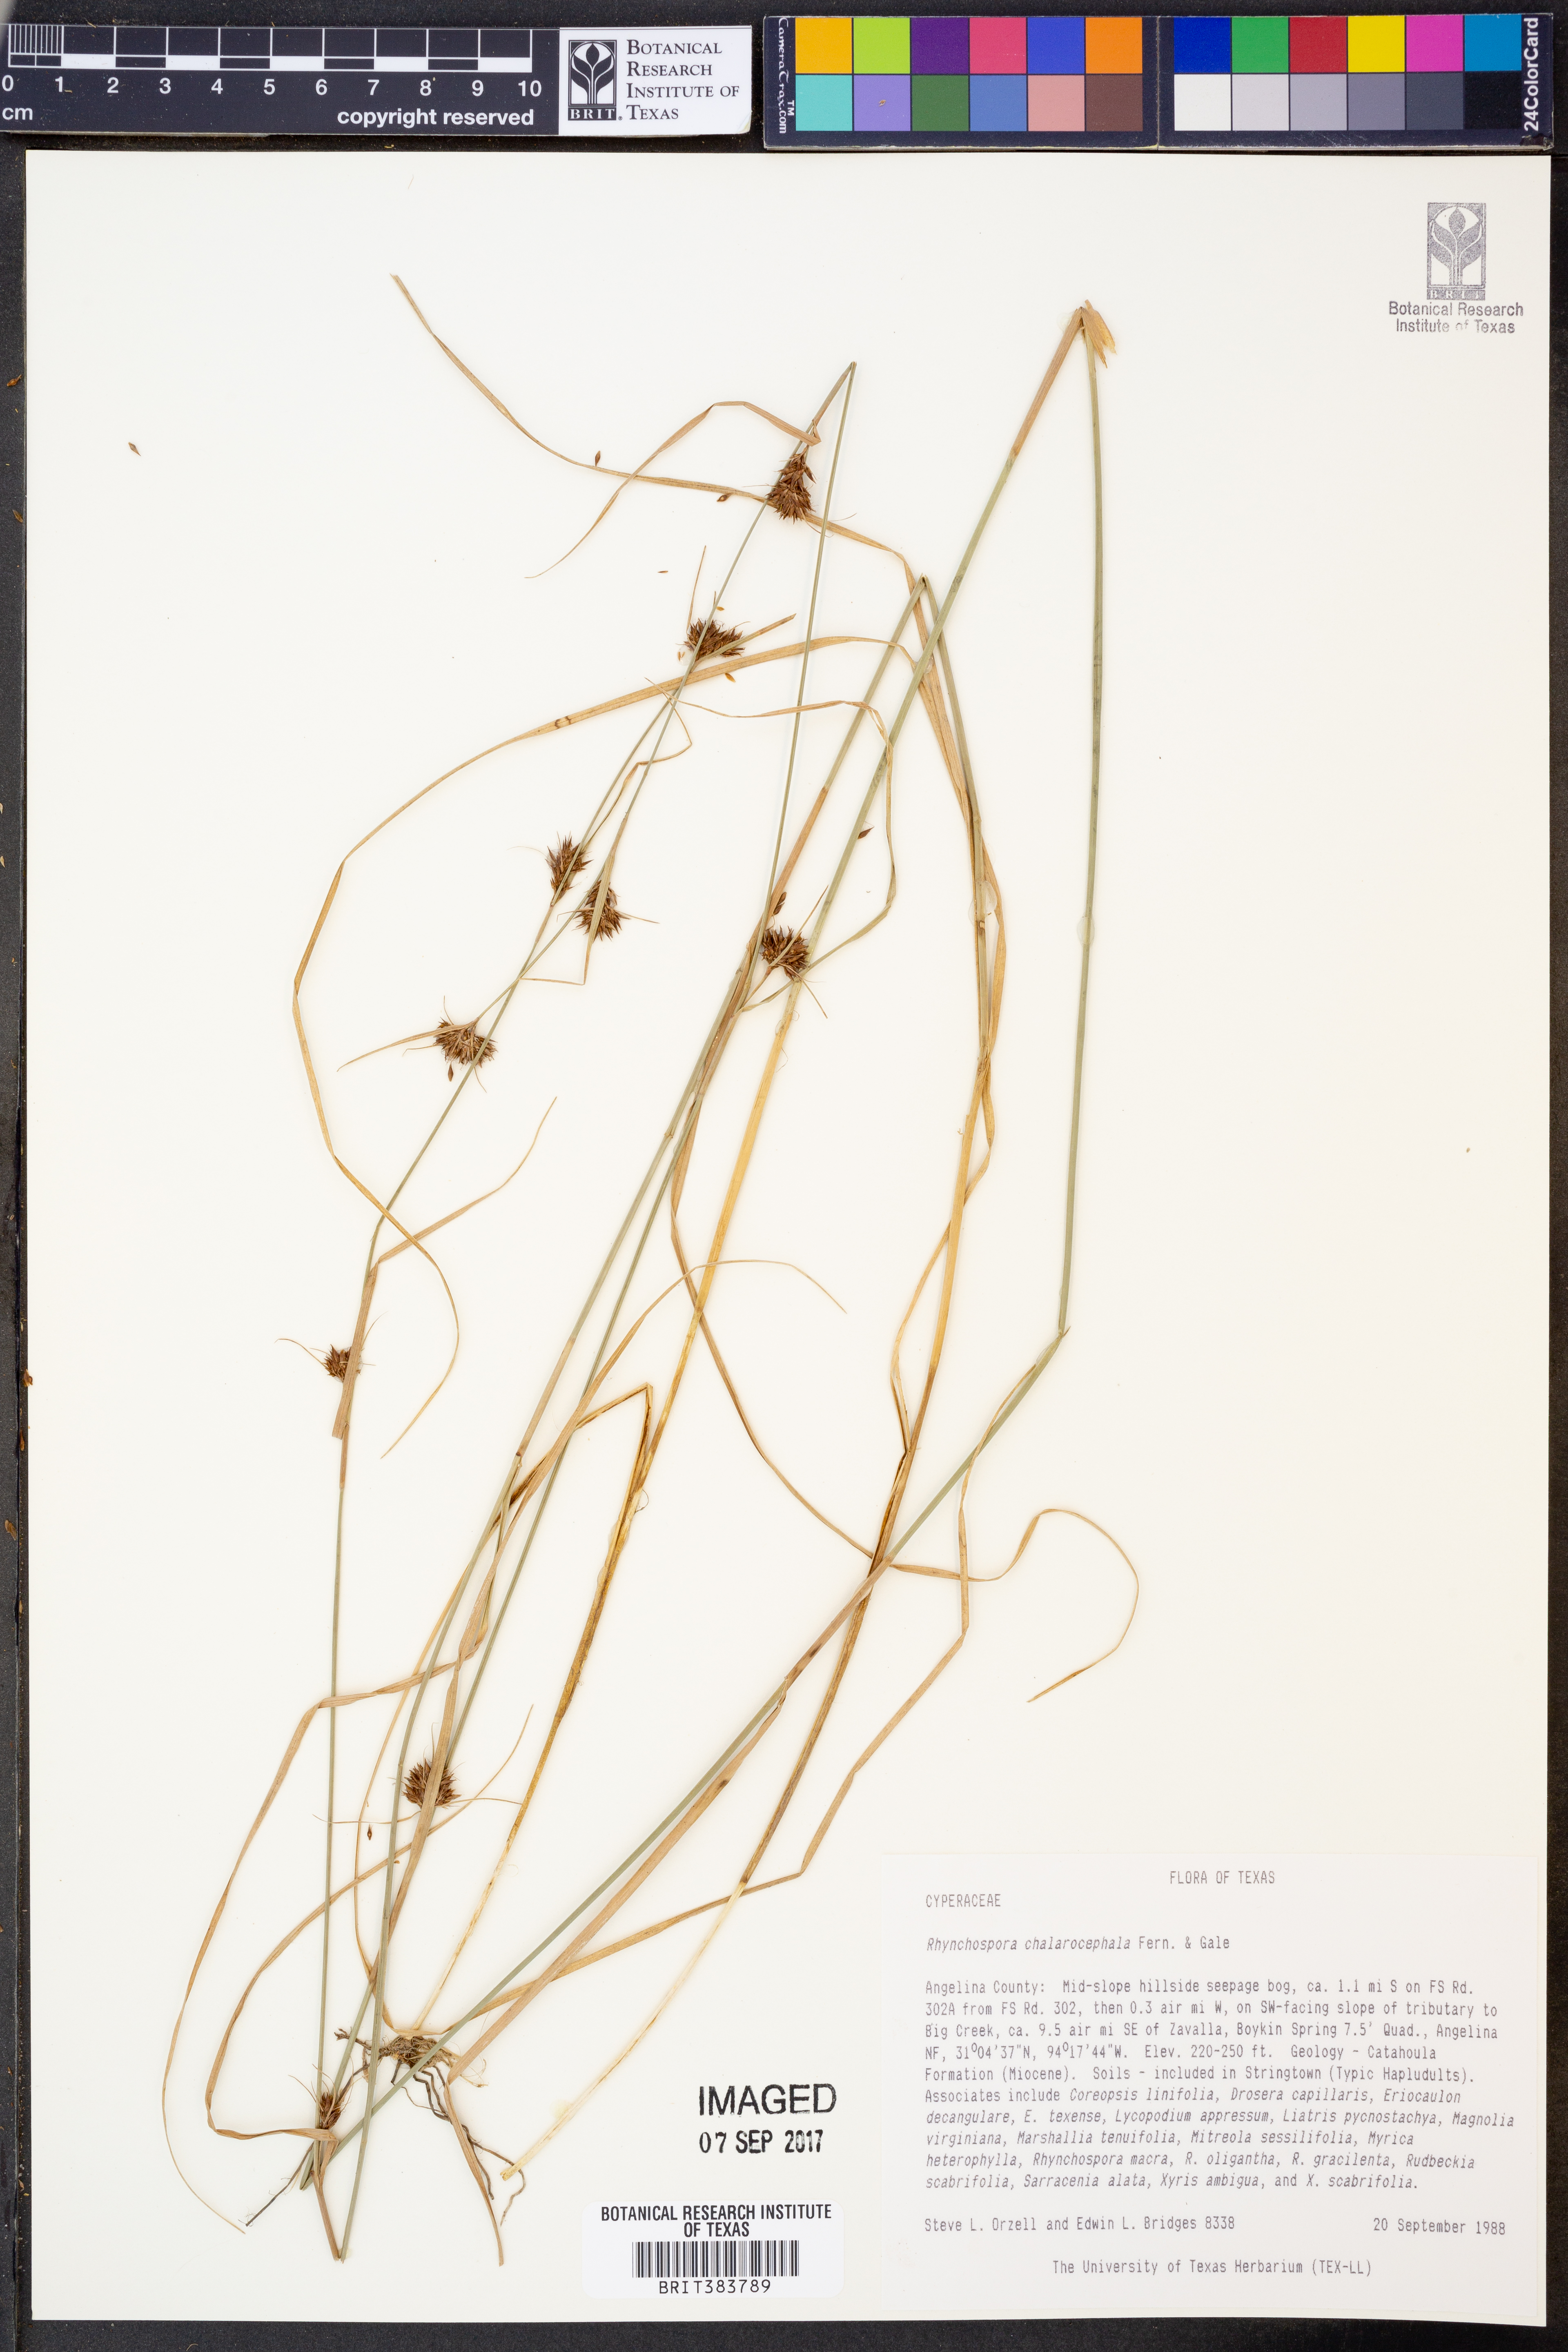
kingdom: Plantae
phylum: Tracheophyta
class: Liliopsida
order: Poales
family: Cyperaceae
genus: Rhynchospora
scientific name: Rhynchospora chalarocephala
